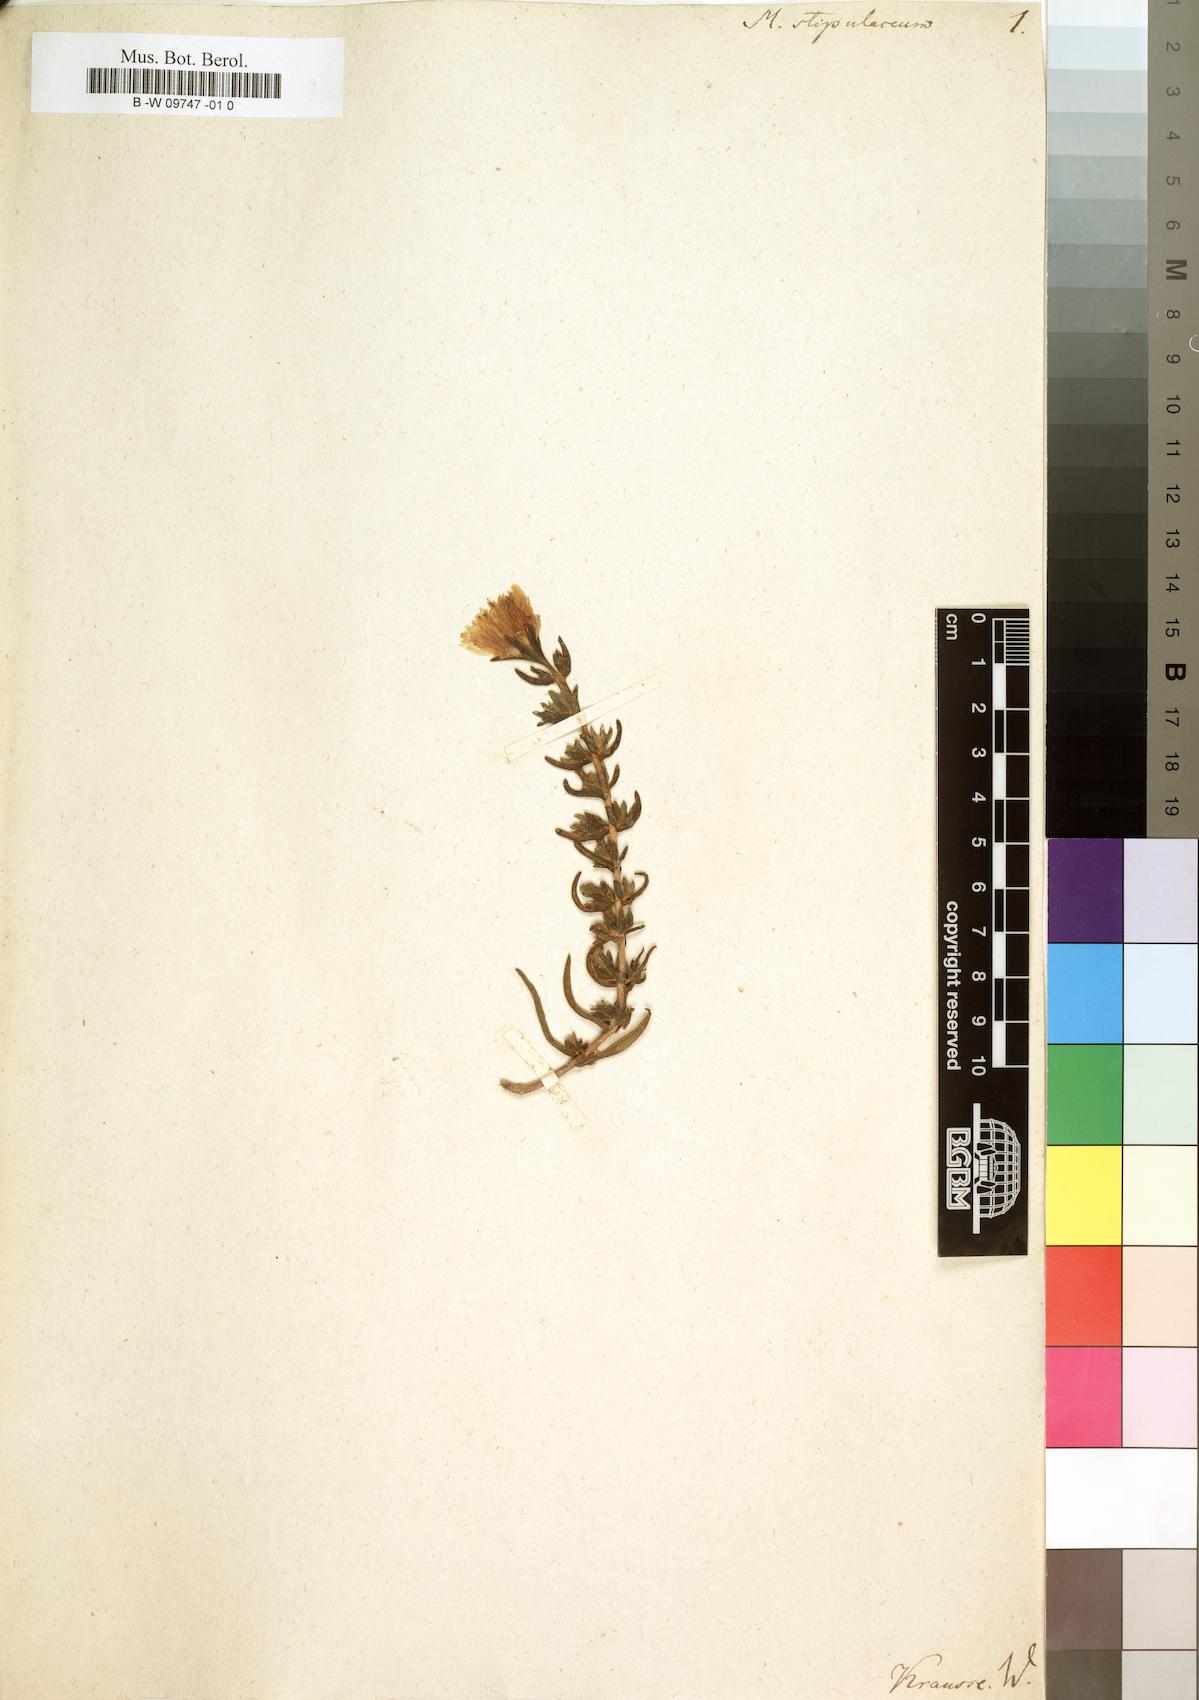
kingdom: Plantae
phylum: Tracheophyta
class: Magnoliopsida
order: Caryophyllales
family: Aizoaceae
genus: Lampranthus
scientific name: Lampranthus
